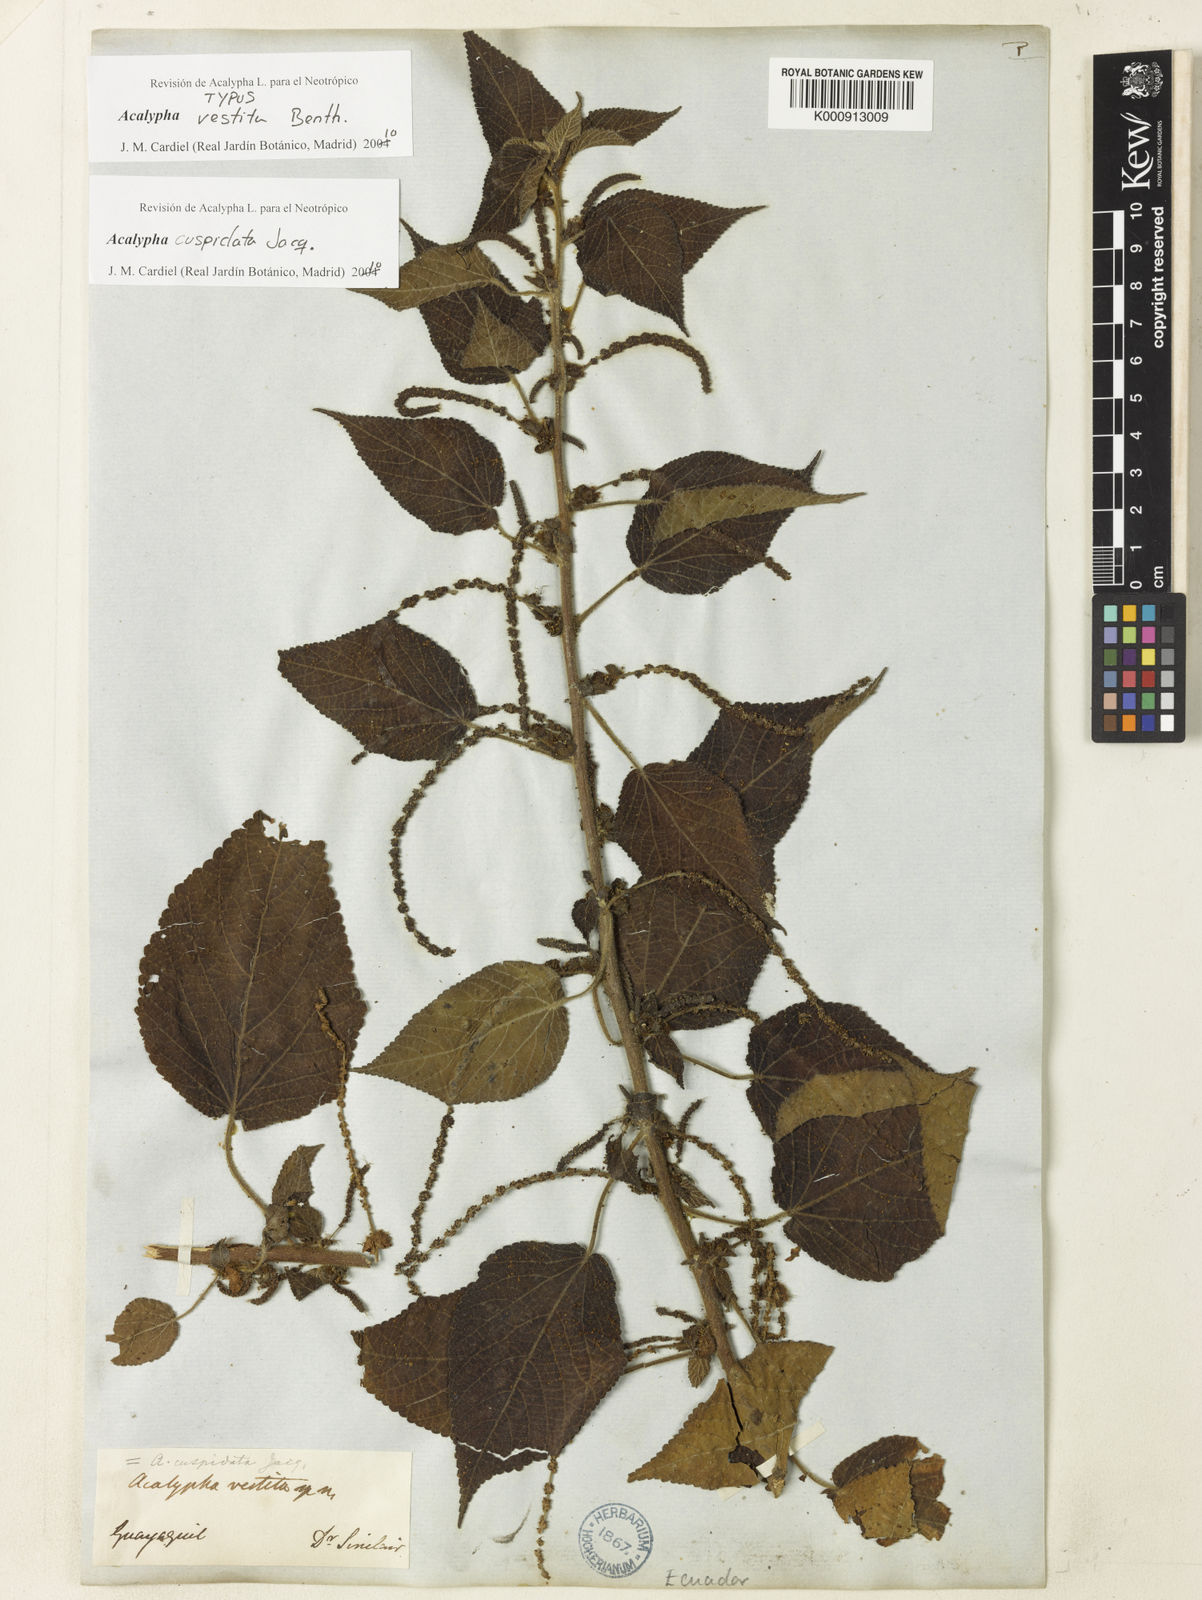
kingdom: Plantae
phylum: Tracheophyta
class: Magnoliopsida
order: Malpighiales
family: Euphorbiaceae
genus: Acalypha
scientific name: Acalypha cuspidata
